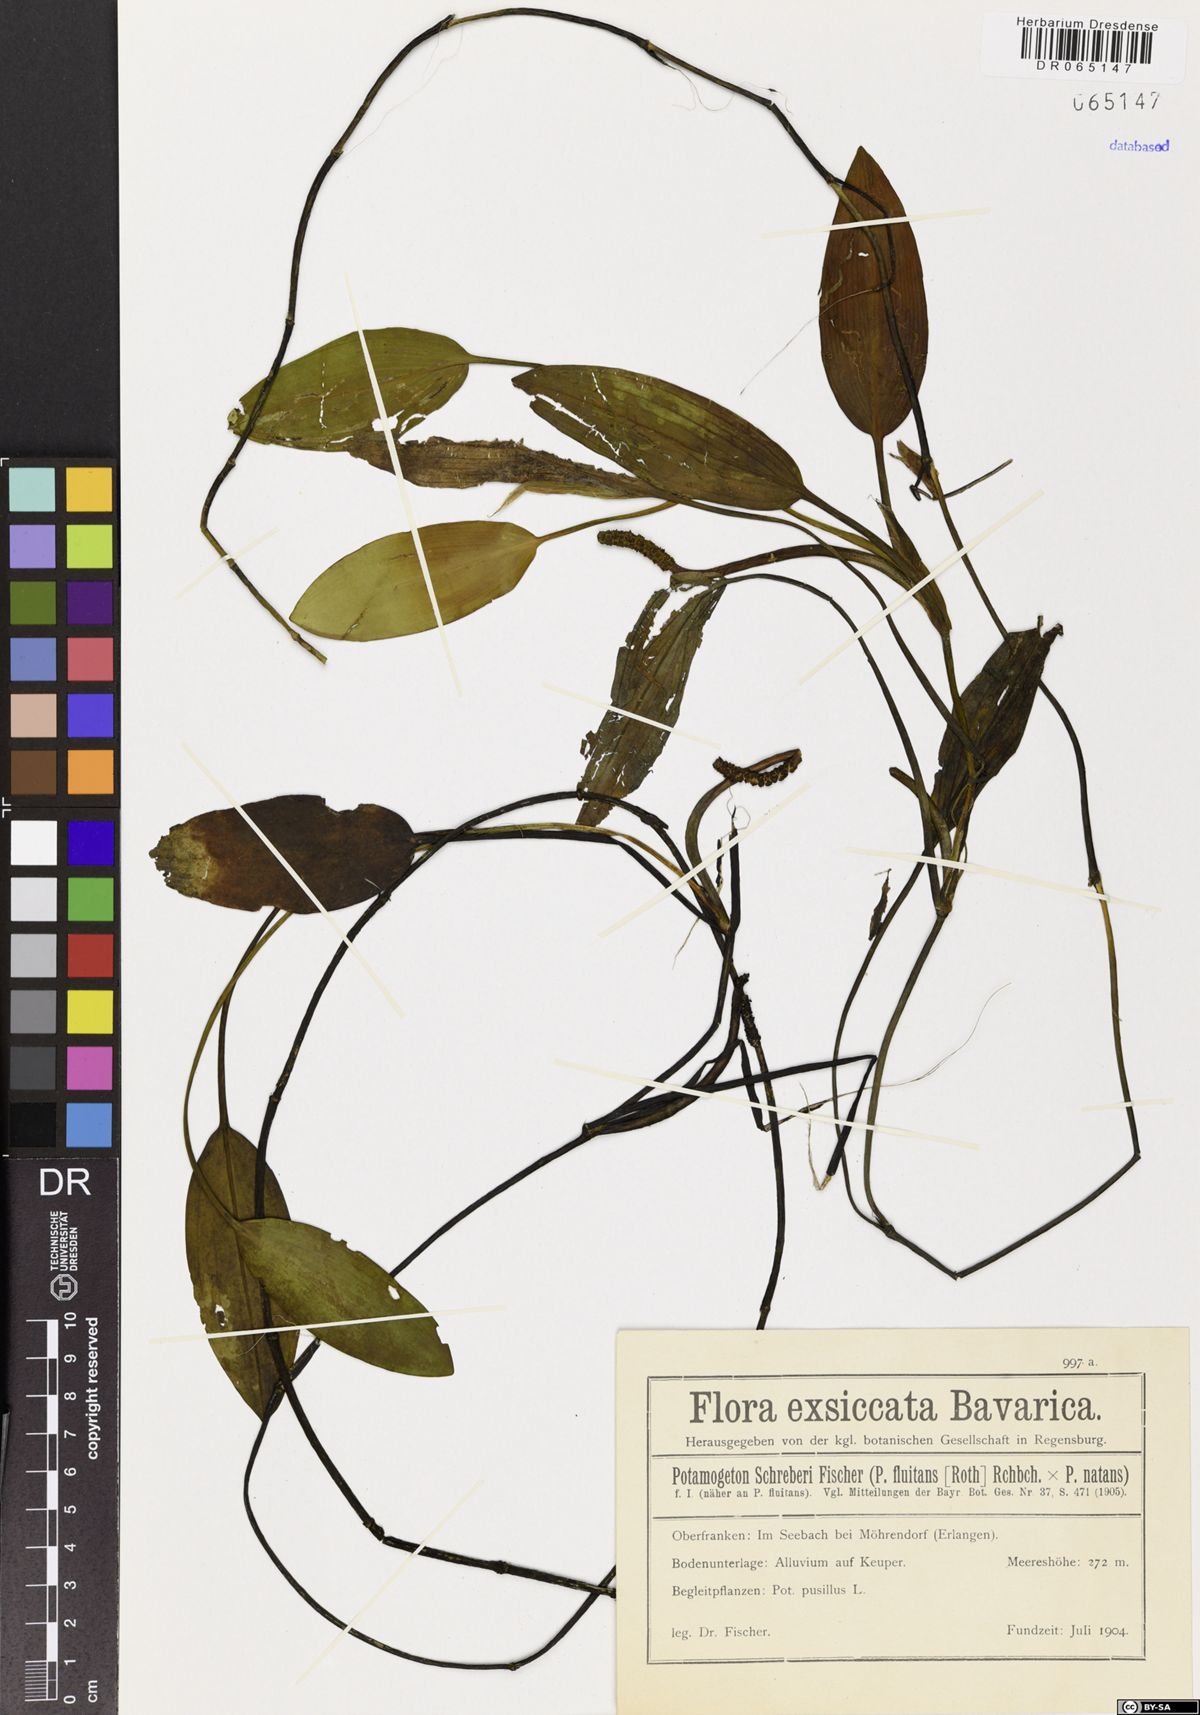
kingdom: Plantae
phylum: Tracheophyta
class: Liliopsida
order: Alismatales
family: Potamogetonaceae
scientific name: Potamogetonaceae
